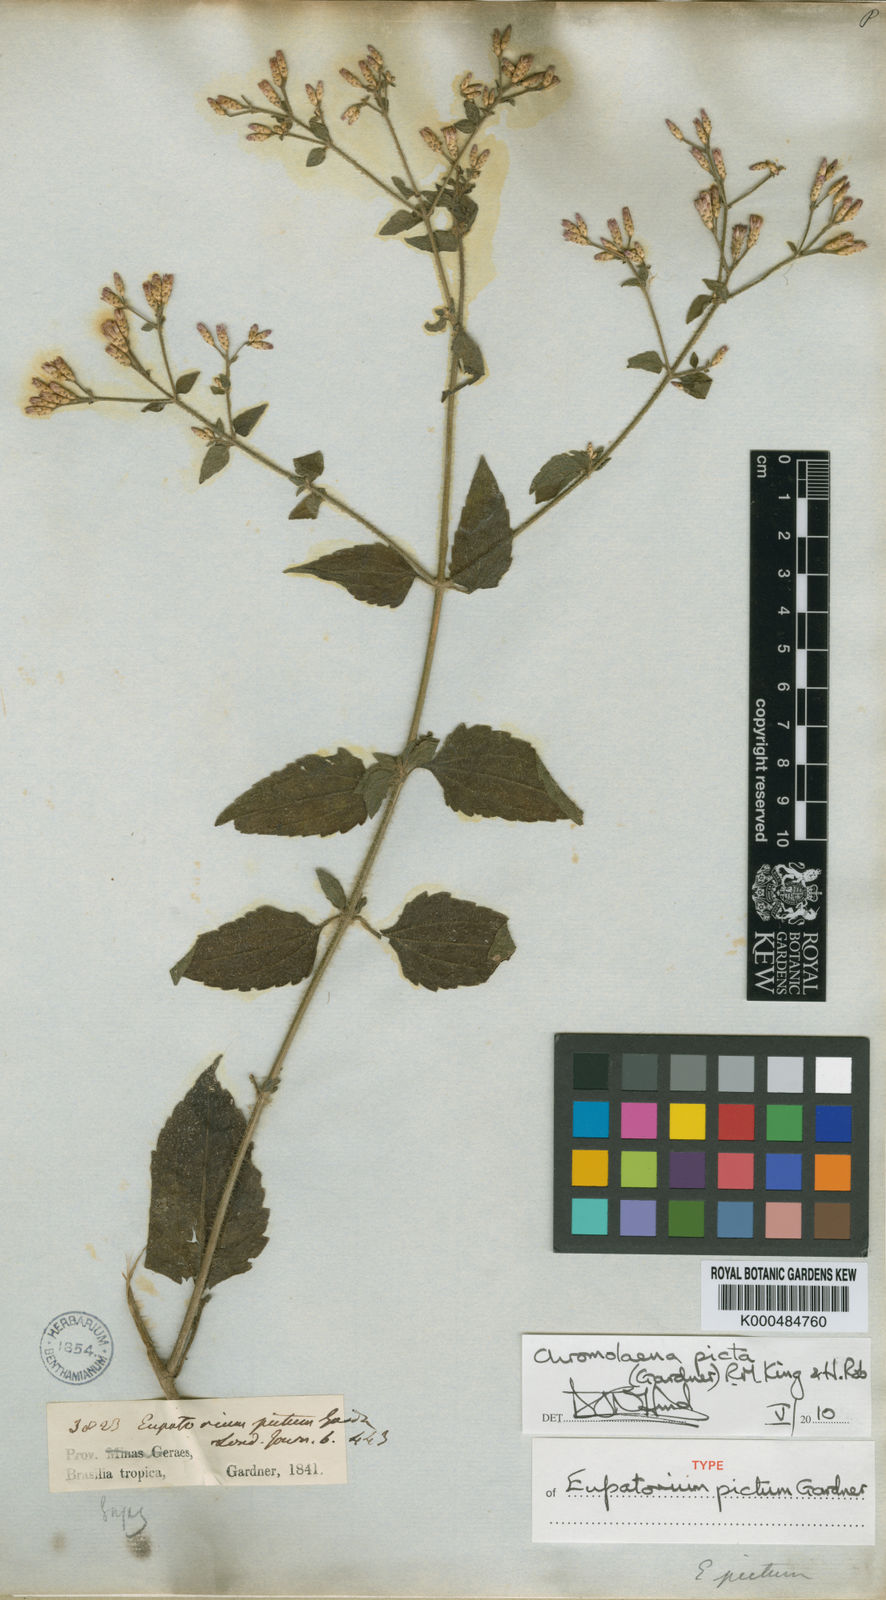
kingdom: Plantae
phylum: Tracheophyta
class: Magnoliopsida
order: Asterales
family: Asteraceae
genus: Chromolaena
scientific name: Chromolaena picta
